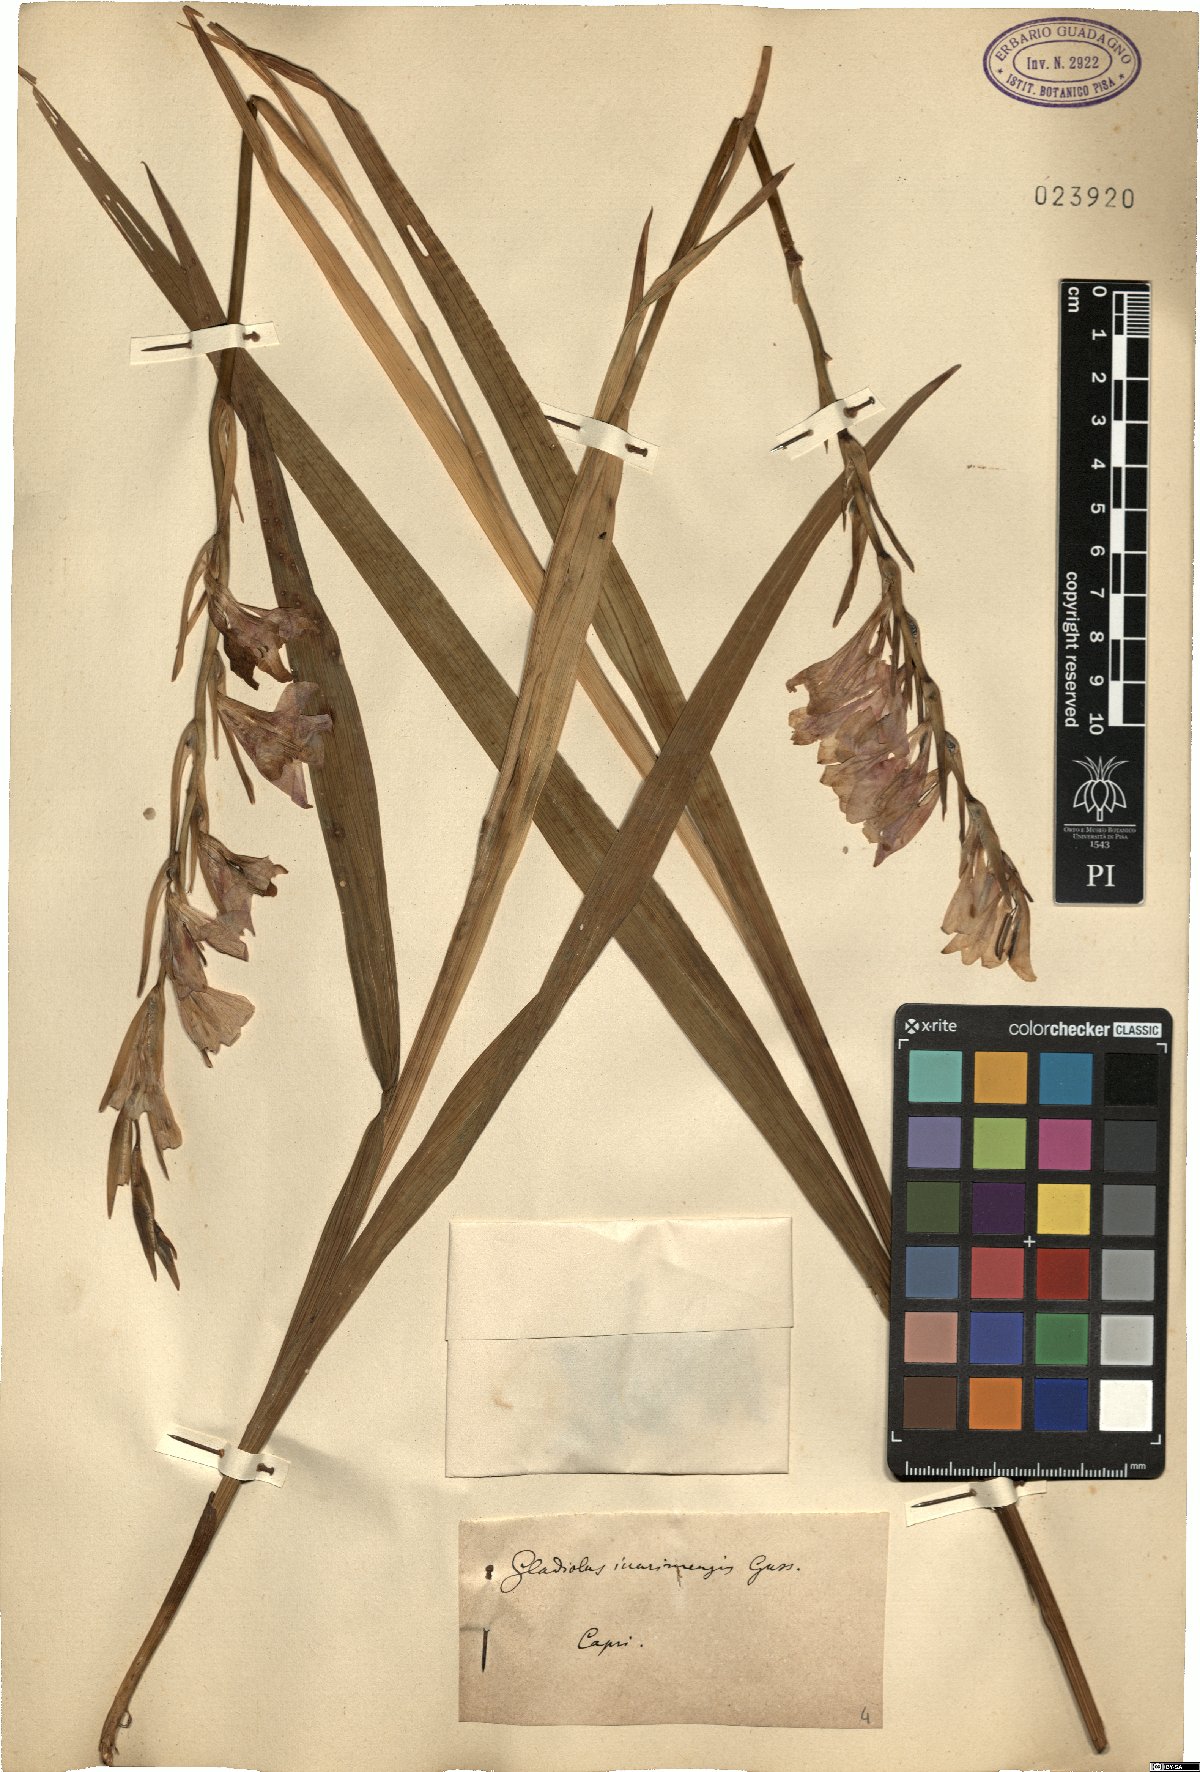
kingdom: Plantae
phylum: Tracheophyta
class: Liliopsida
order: Asparagales
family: Iridaceae
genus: Gladiolus
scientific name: Gladiolus inarimensis
